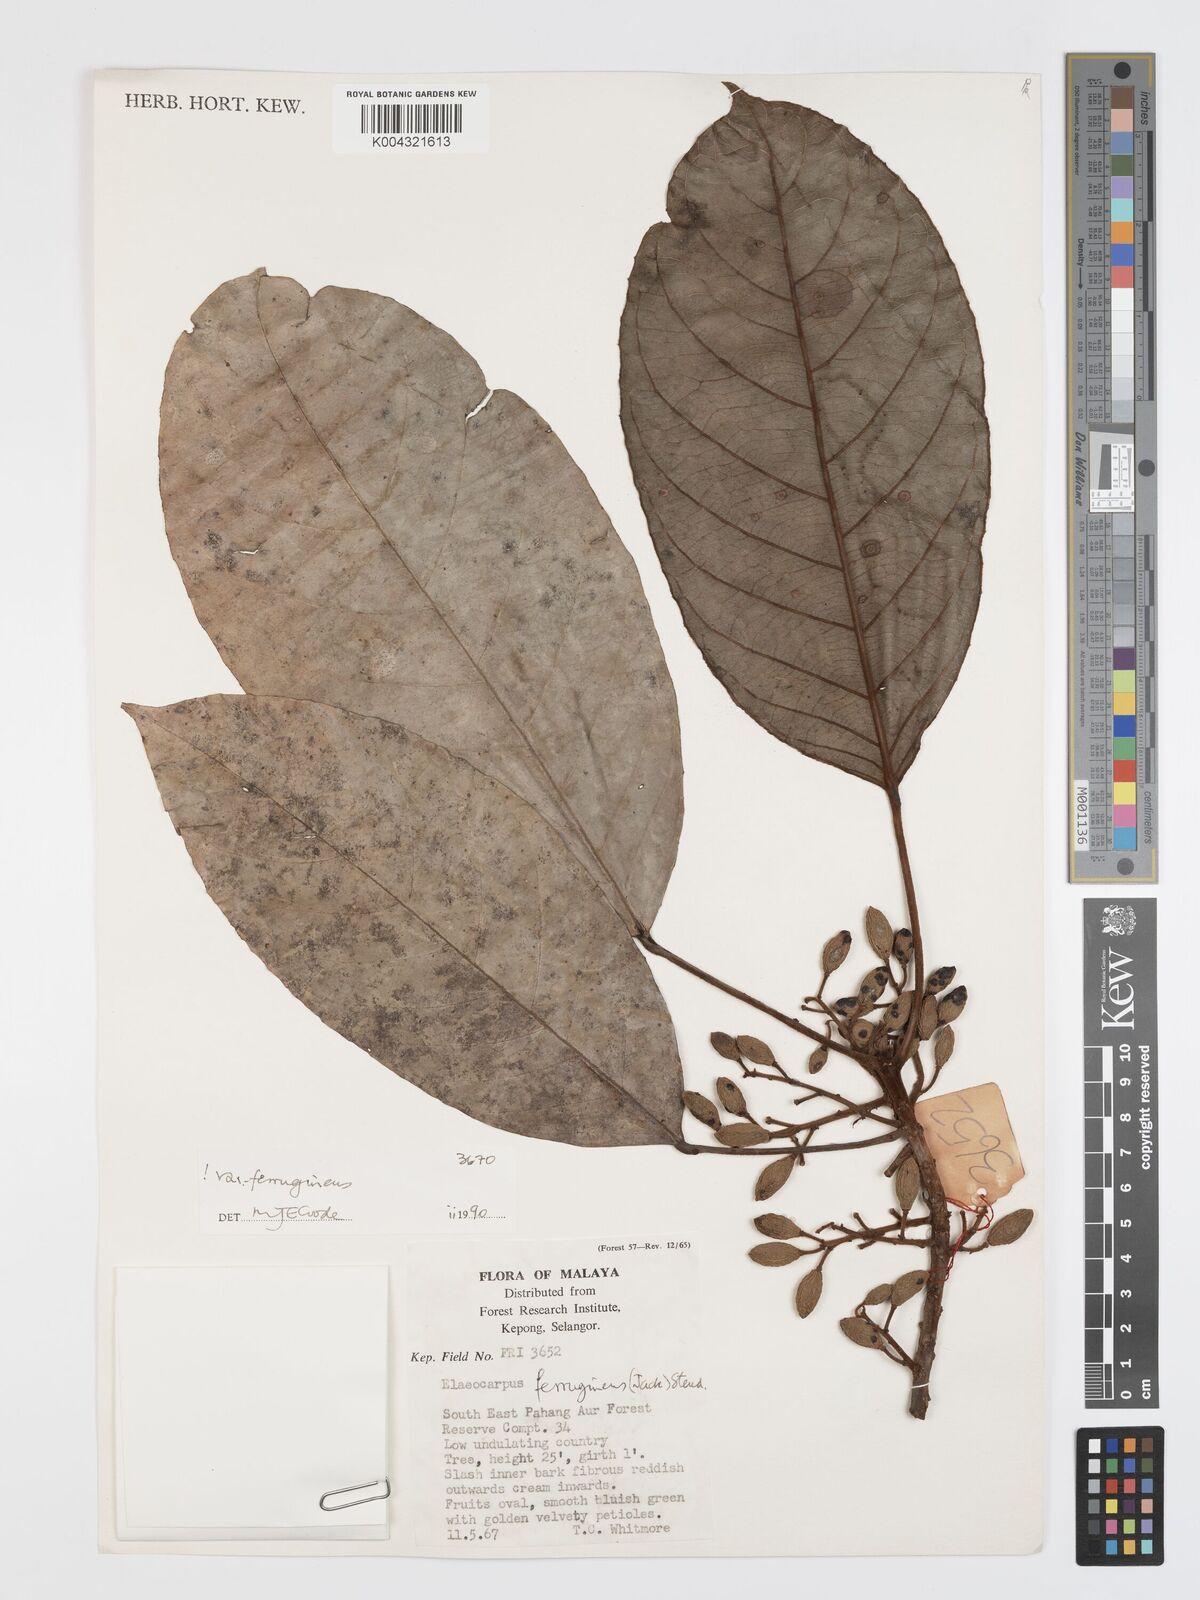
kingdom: Plantae
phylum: Tracheophyta
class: Magnoliopsida
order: Oxalidales
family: Elaeocarpaceae
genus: Elaeocarpus
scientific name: Elaeocarpus ferrugineus
